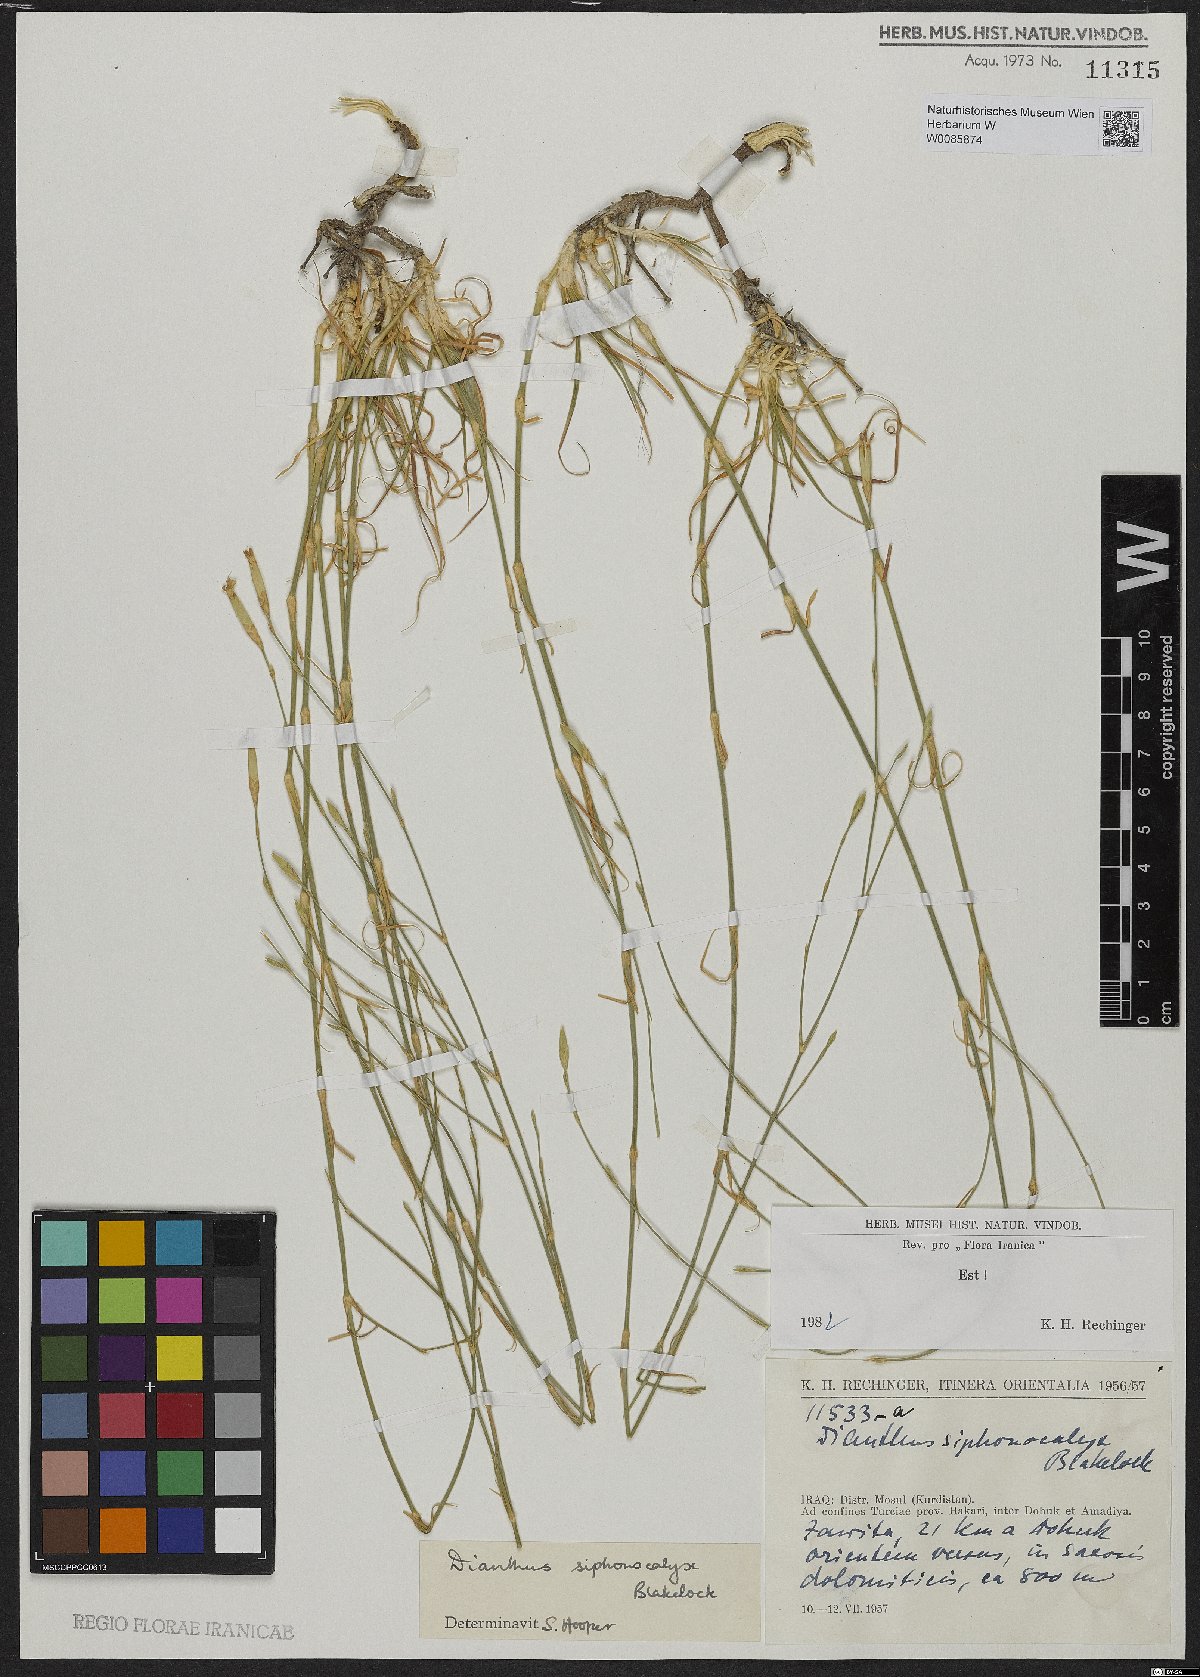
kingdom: Plantae
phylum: Tracheophyta
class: Magnoliopsida
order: Caryophyllales
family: Caryophyllaceae
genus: Dianthus
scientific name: Dianthus siphonocalyx
